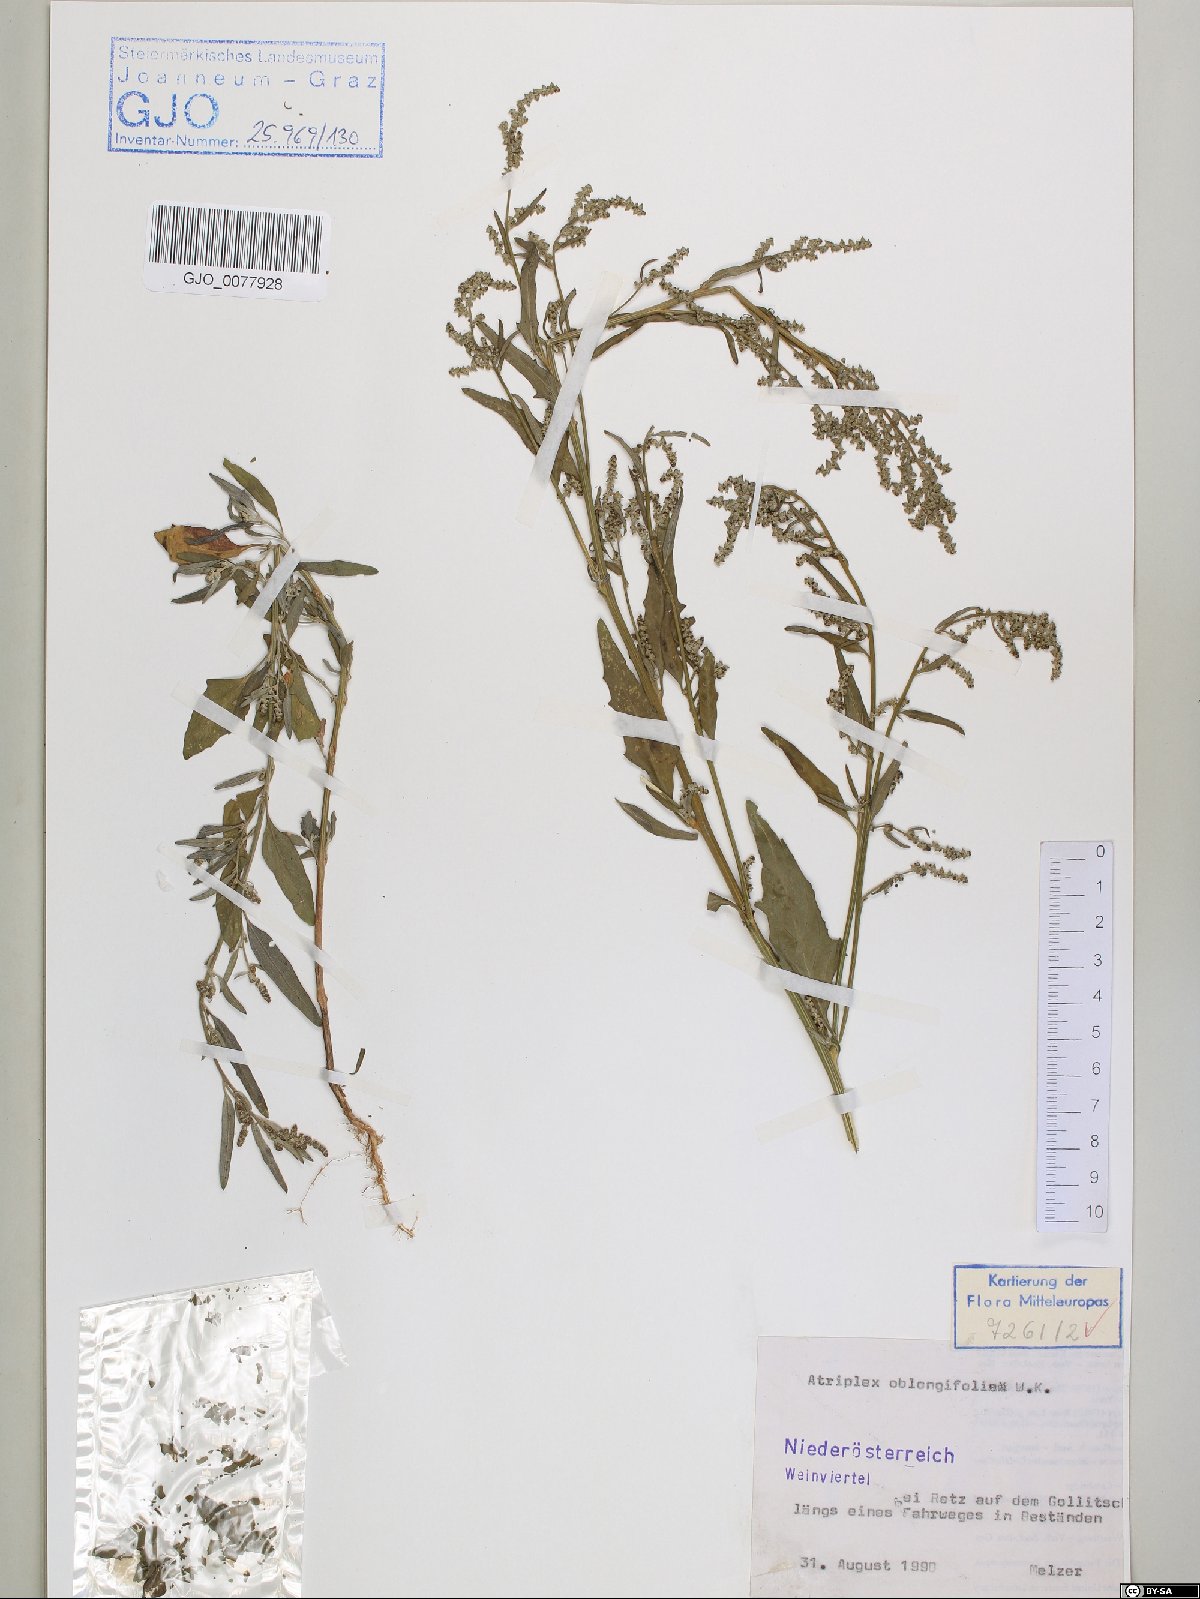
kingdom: Plantae
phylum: Tracheophyta
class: Magnoliopsida
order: Caryophyllales
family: Amaranthaceae
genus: Atriplex
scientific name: Atriplex oblongifolia
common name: Oblongleaf orache
